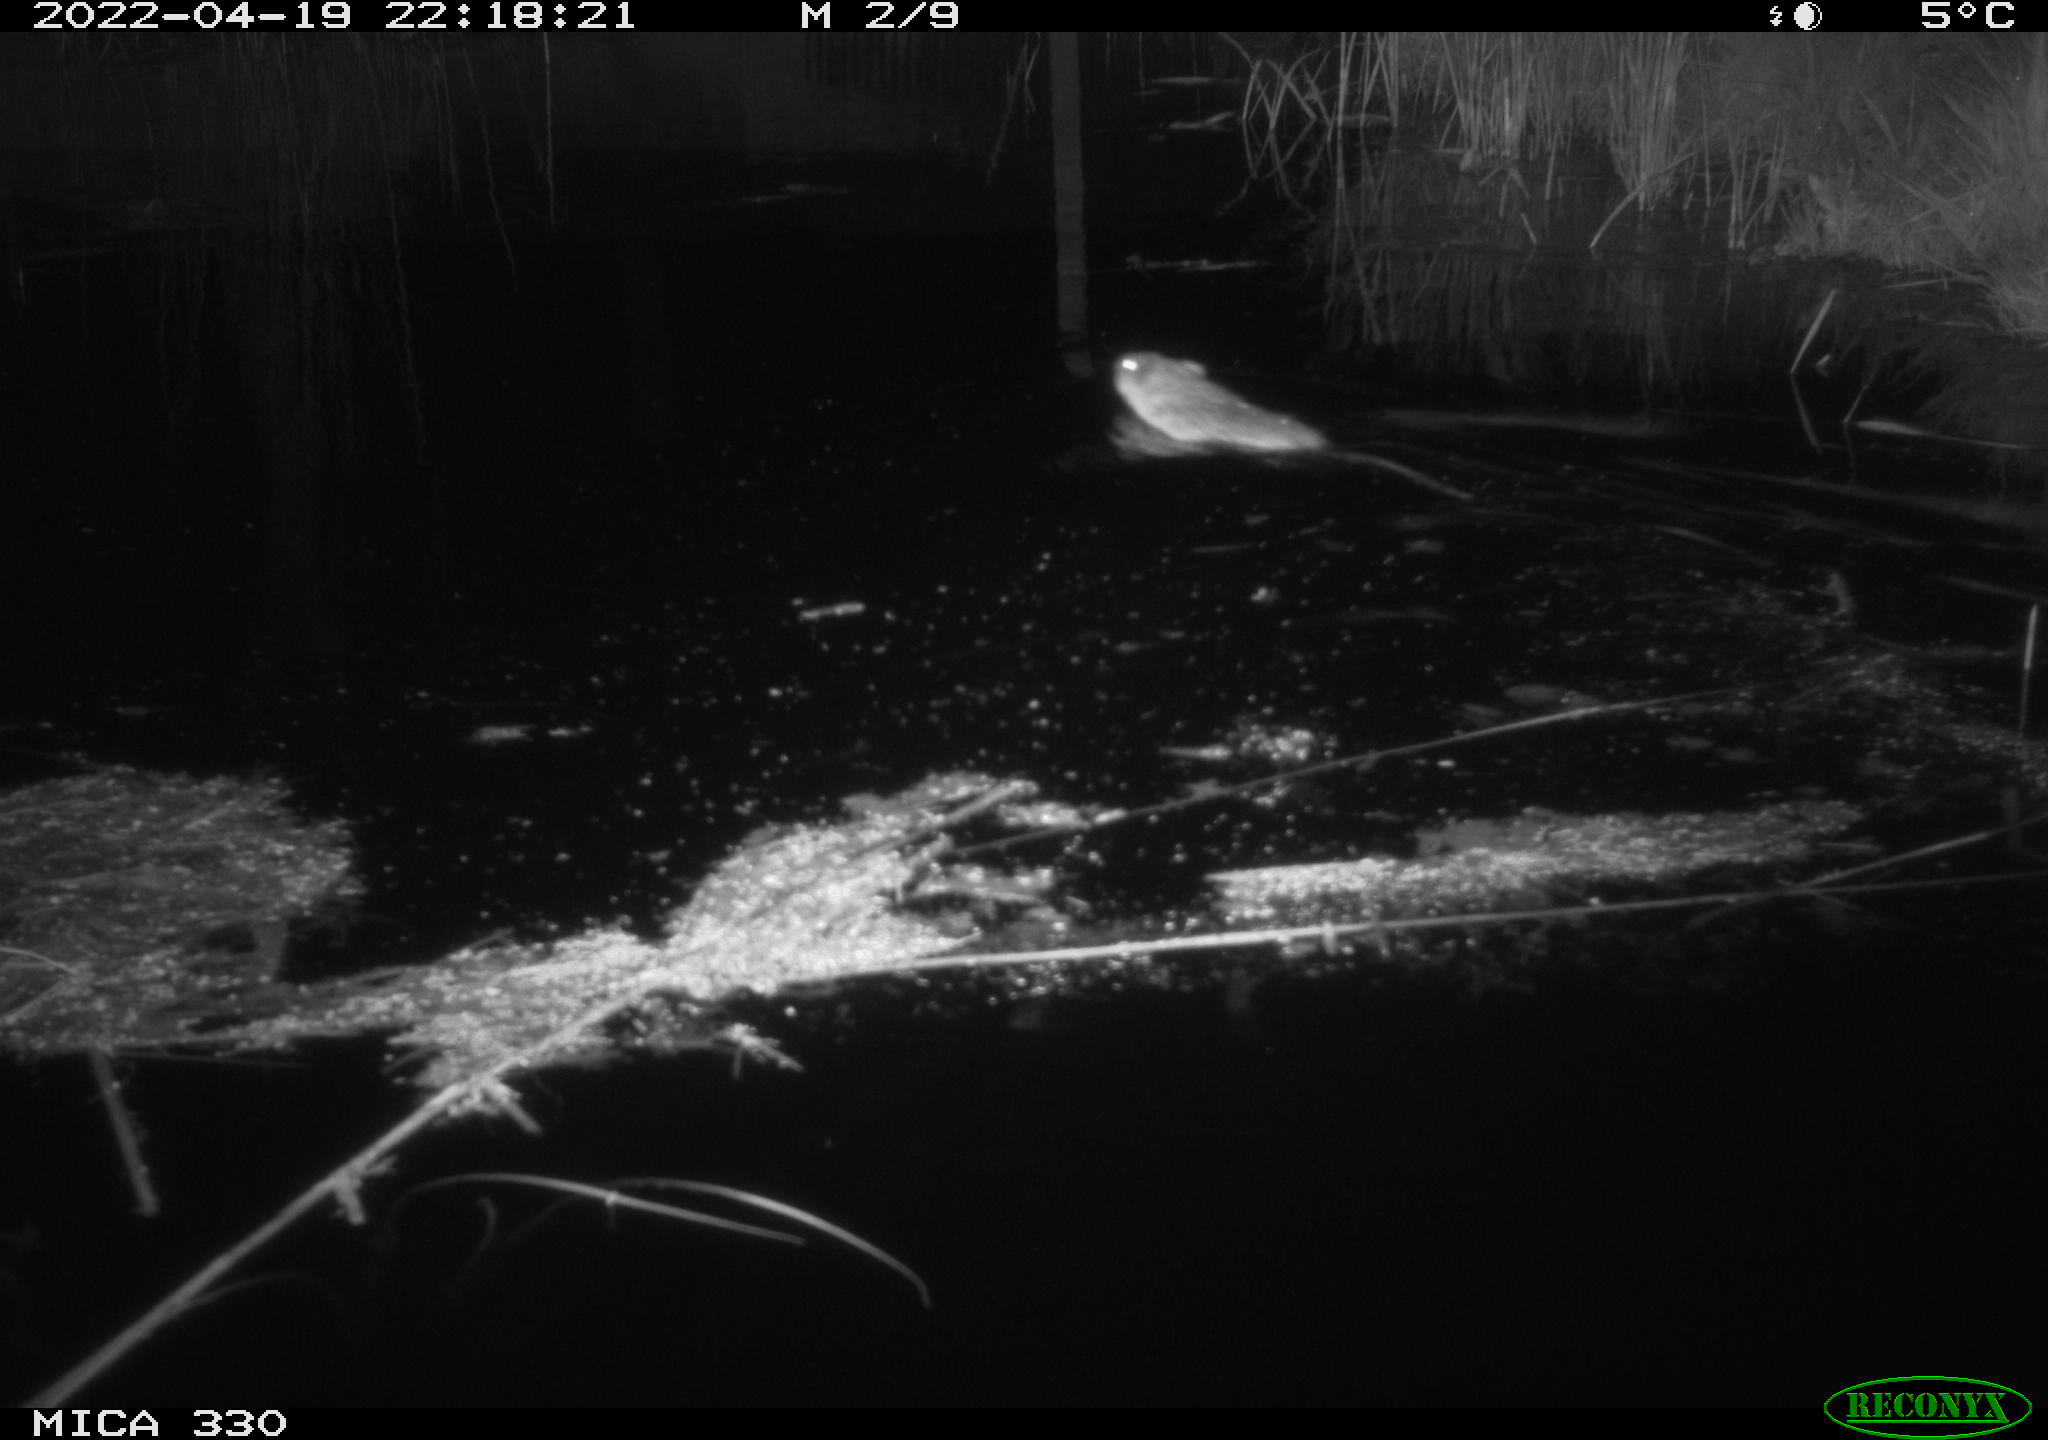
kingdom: Animalia
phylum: Chordata
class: Mammalia
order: Rodentia
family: Cricetidae
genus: Ondatra
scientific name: Ondatra zibethicus
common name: Muskrat
